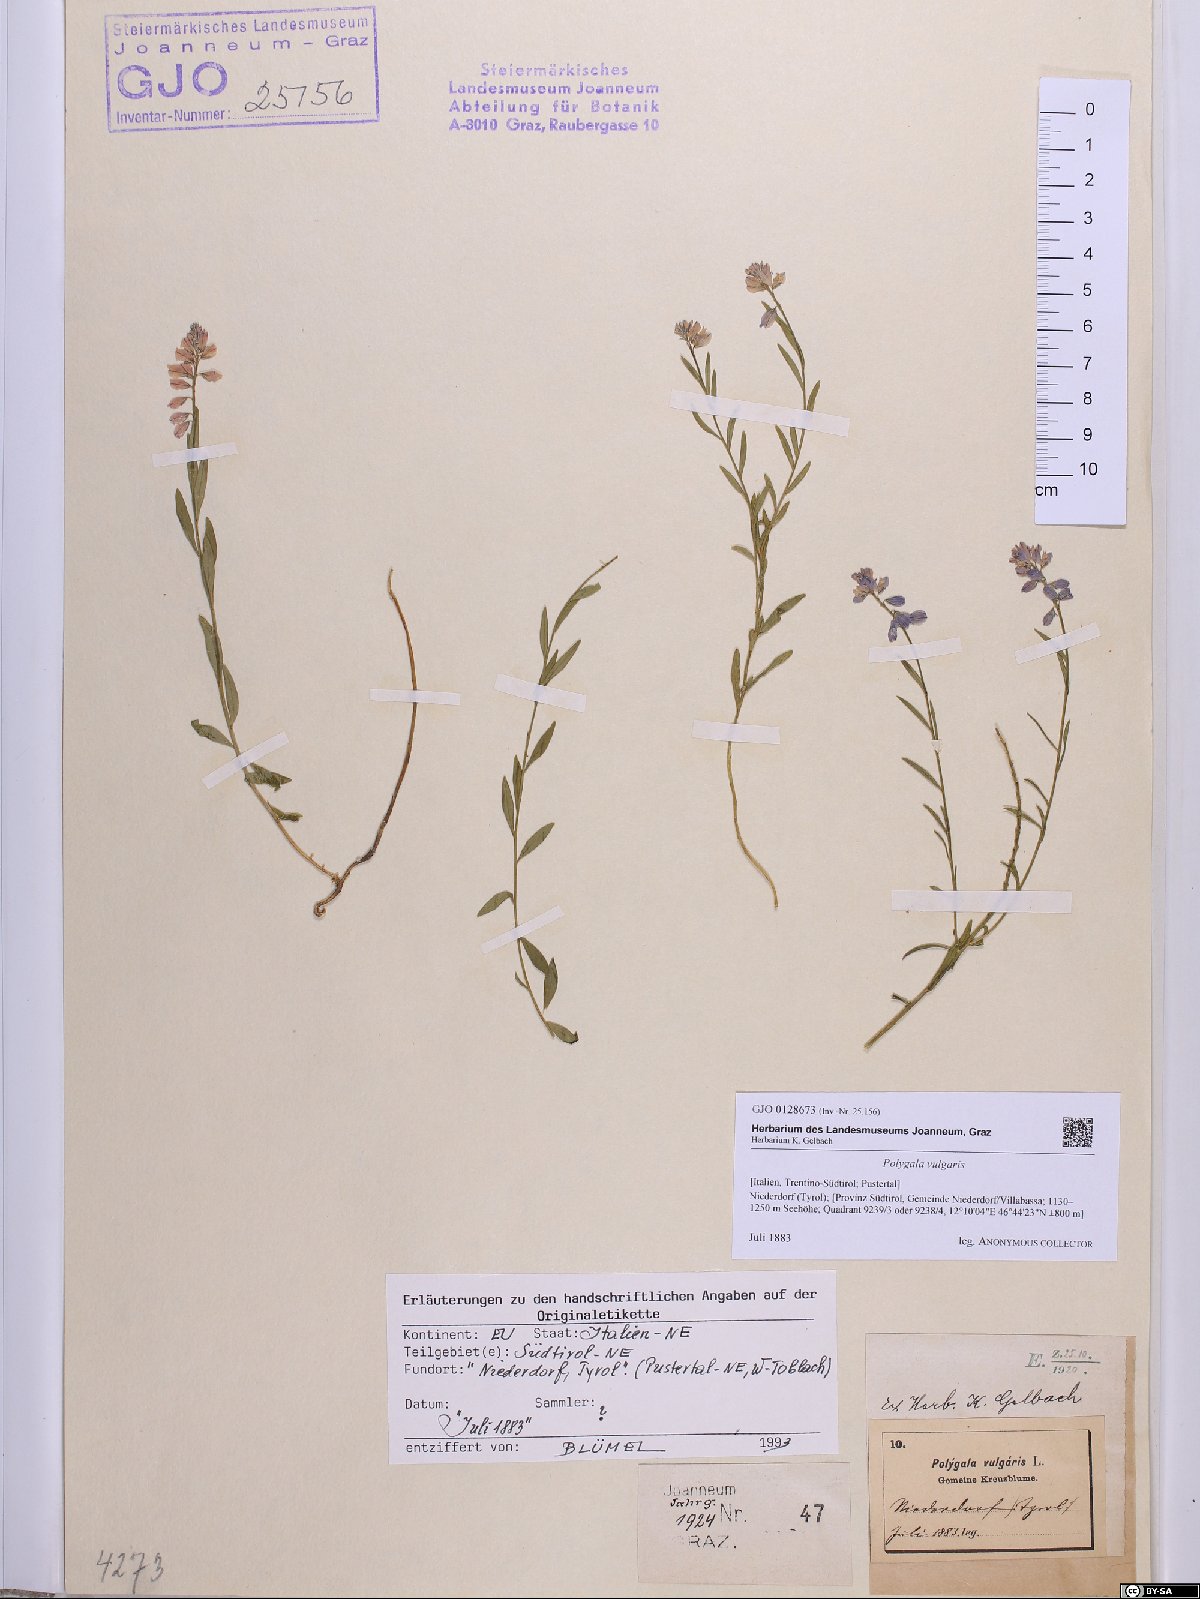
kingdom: Plantae
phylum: Tracheophyta
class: Magnoliopsida
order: Fabales
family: Polygalaceae
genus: Polygala
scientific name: Polygala vulgaris
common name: Common milkwort
